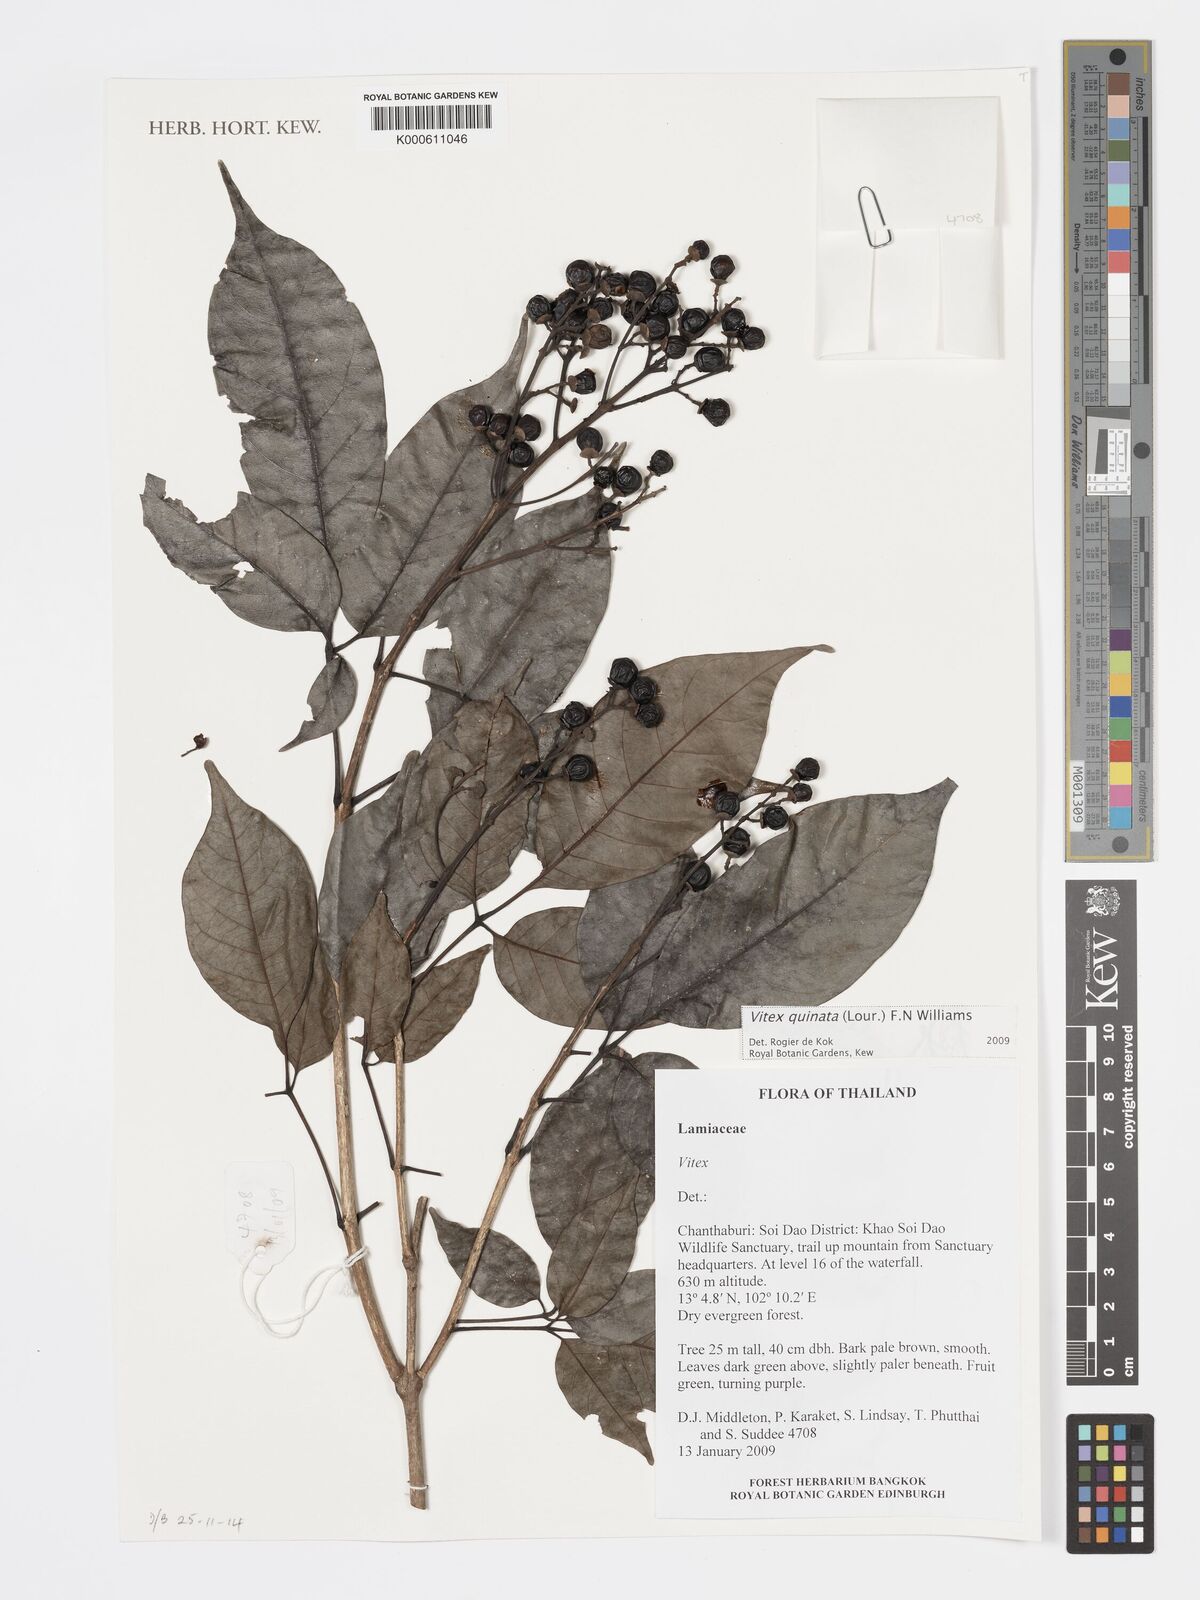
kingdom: Plantae
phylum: Tracheophyta
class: Magnoliopsida
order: Lamiales
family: Lamiaceae
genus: Vitex
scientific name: Vitex quinata
